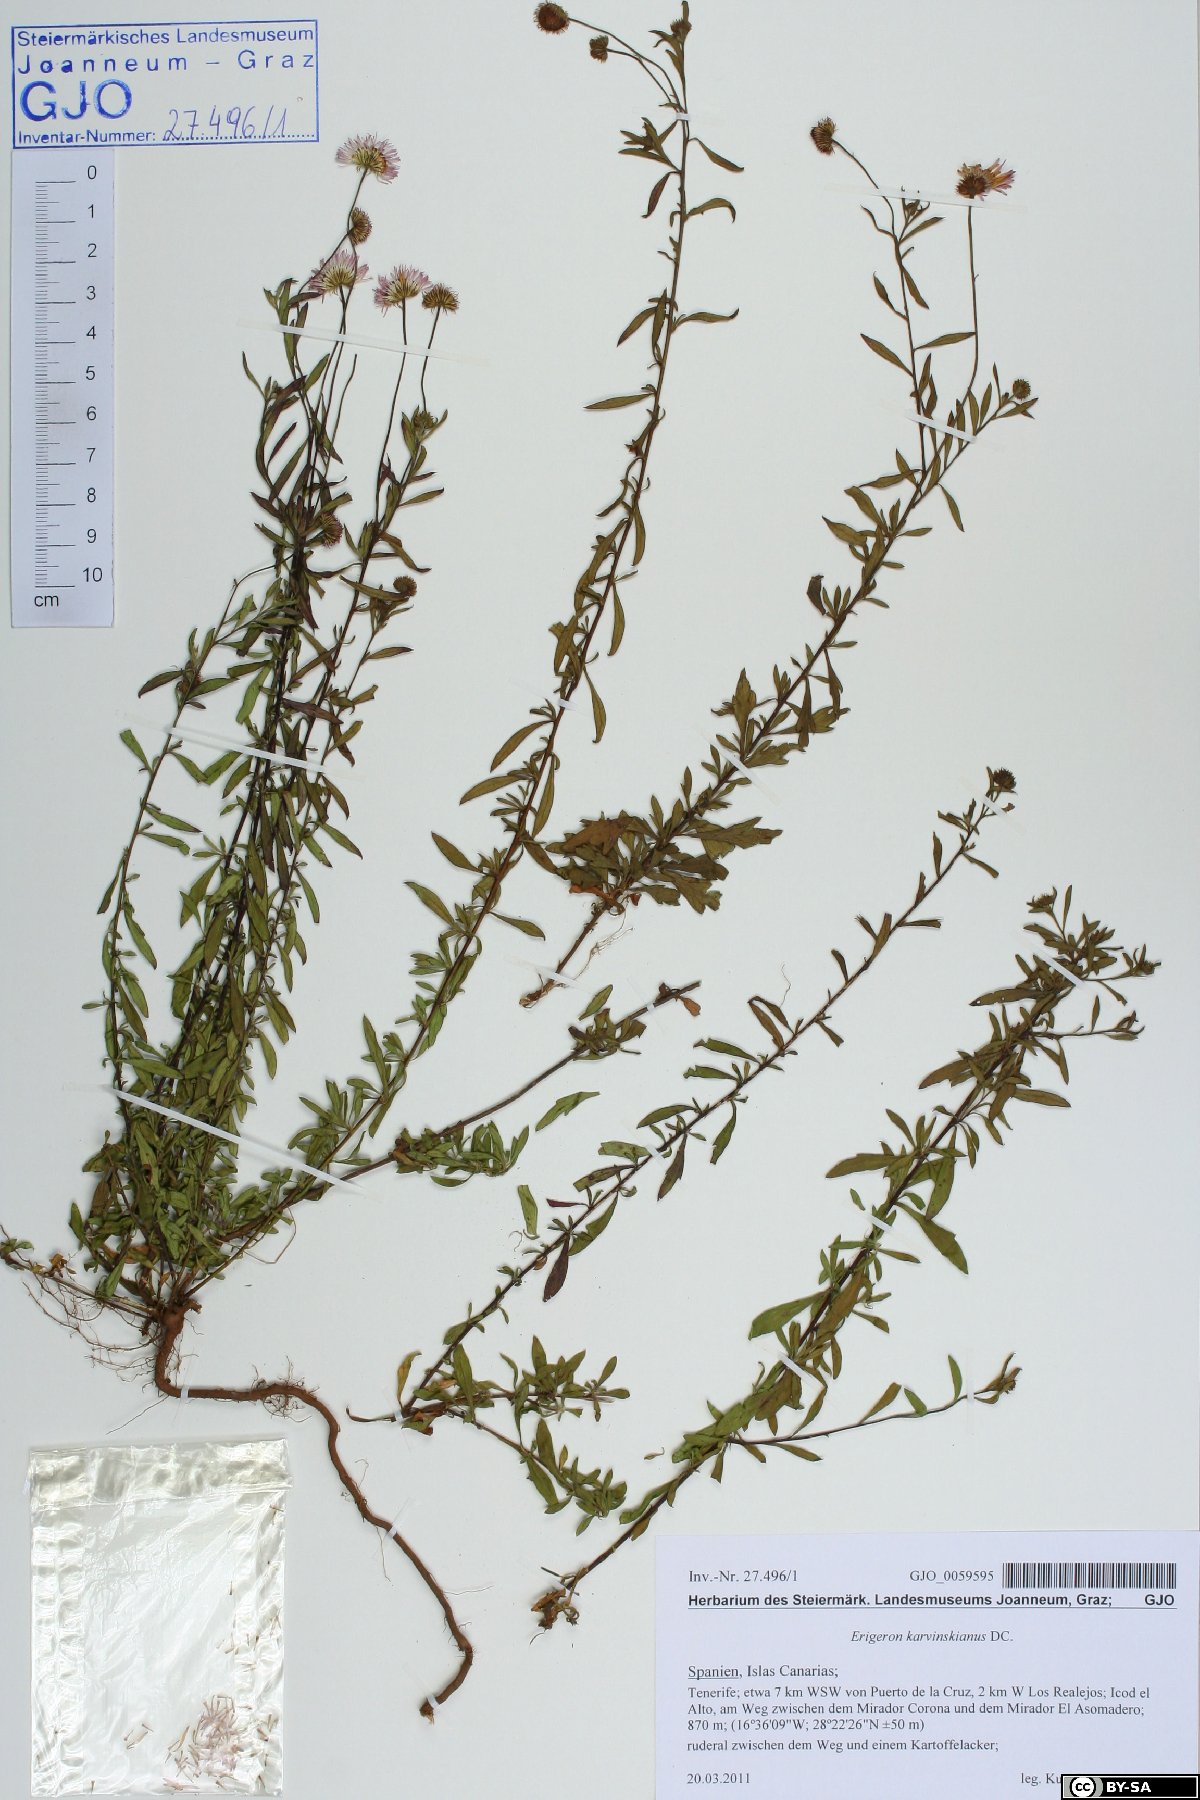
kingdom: Plantae
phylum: Tracheophyta
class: Magnoliopsida
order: Asterales
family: Asteraceae
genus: Erigeron
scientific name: Erigeron karvinskianus
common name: Mexican fleabane
